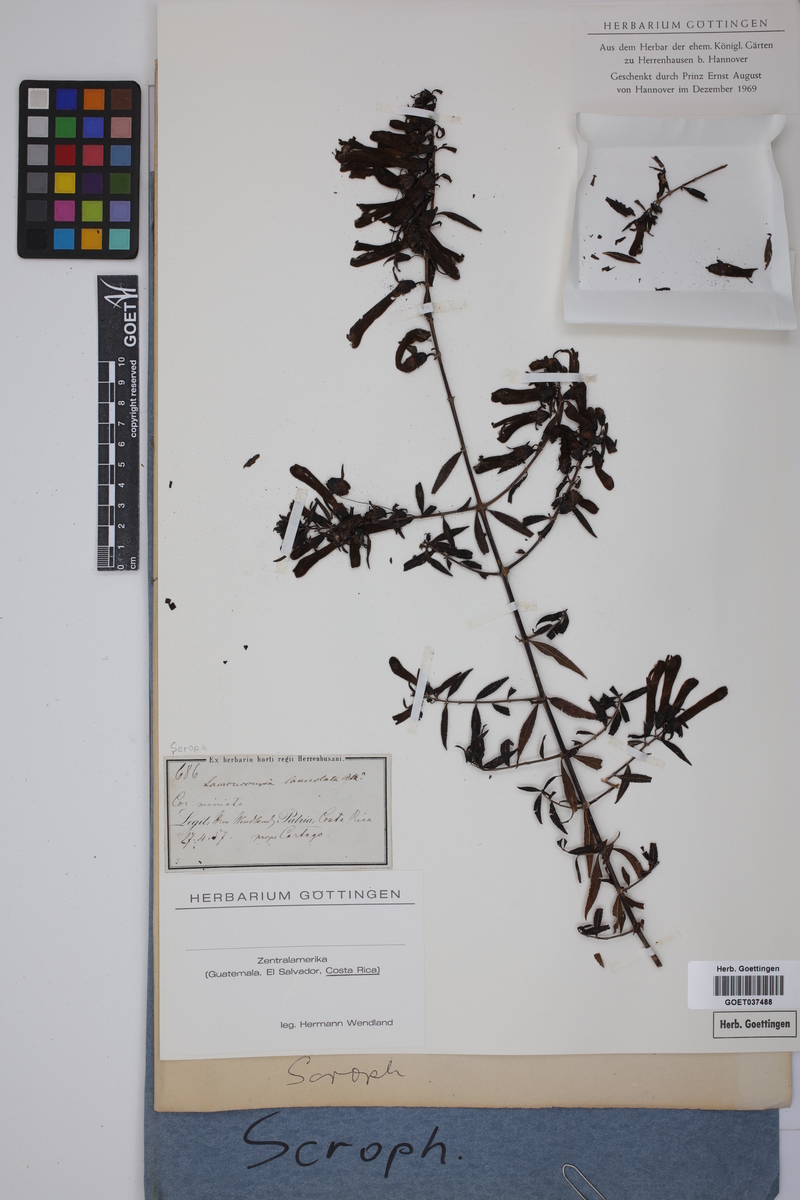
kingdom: Plantae
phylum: Tracheophyta
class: Magnoliopsida
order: Lamiales
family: Orobanchaceae
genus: Lamourouxia
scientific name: Lamourouxia lanceolata
